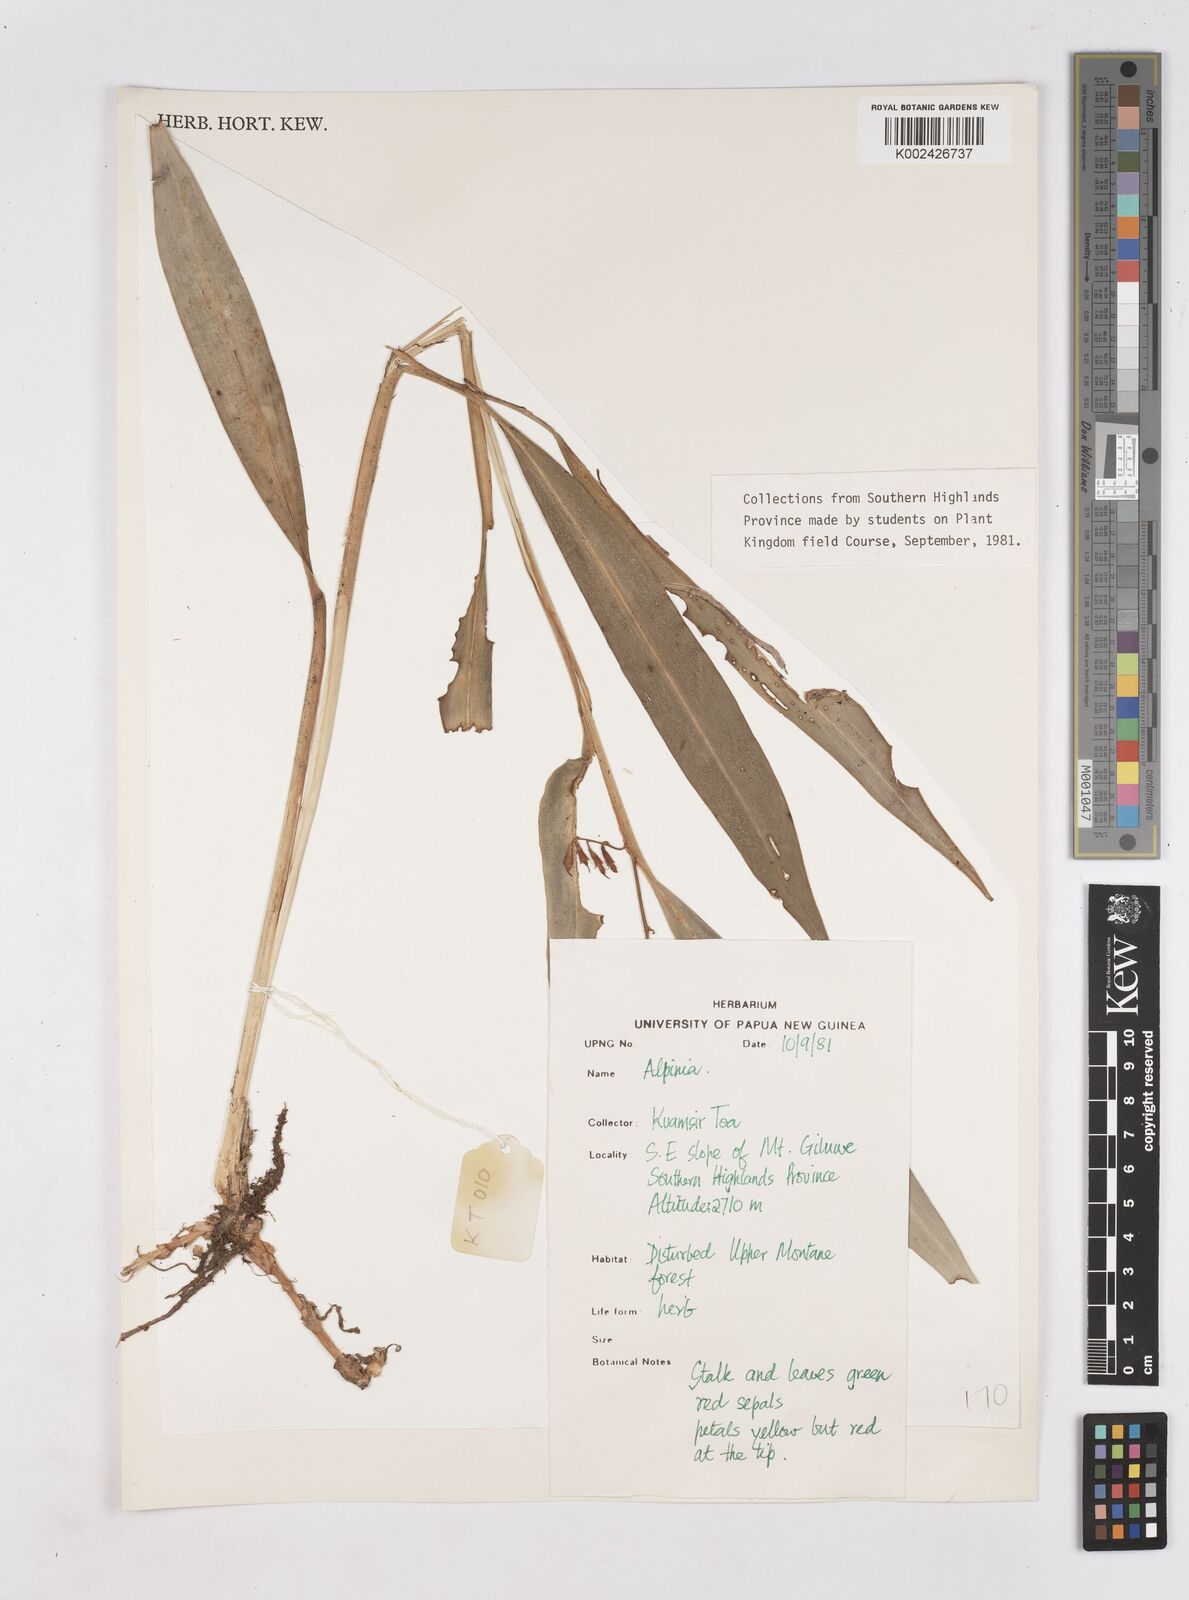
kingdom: Plantae
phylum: Tracheophyta
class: Liliopsida
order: Zingiberales
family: Zingiberaceae
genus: Riedelia
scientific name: Riedelia
